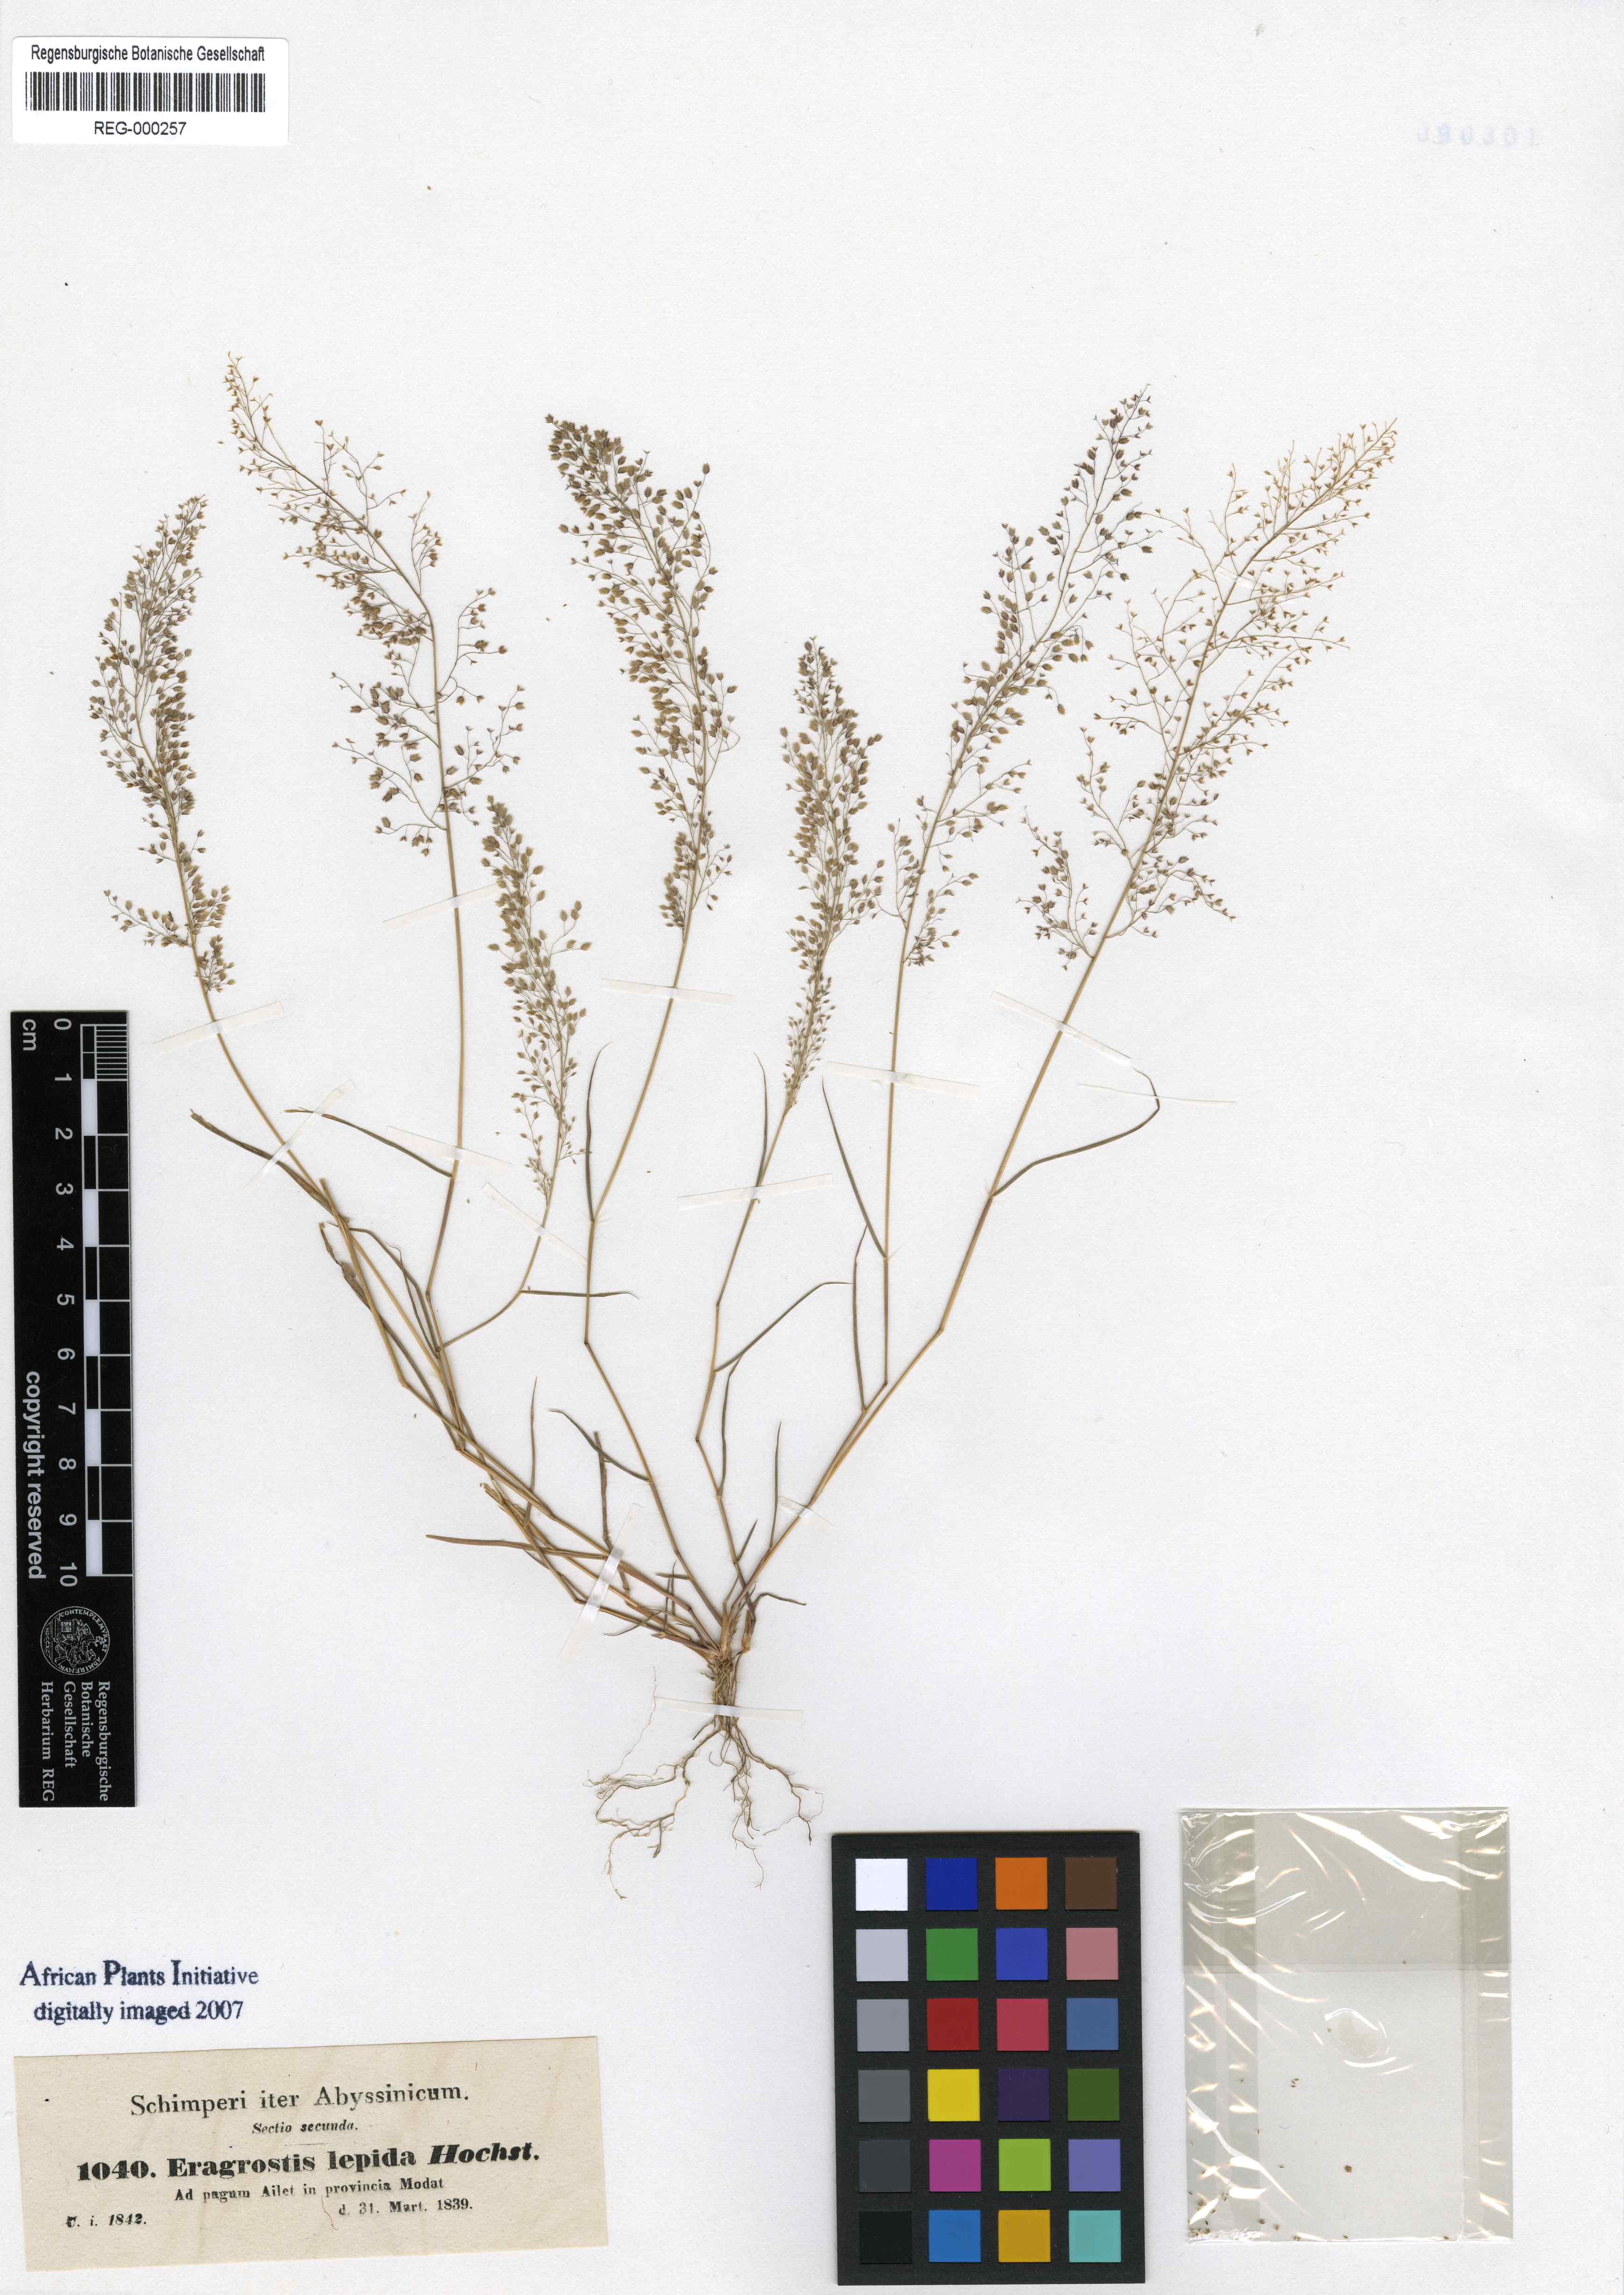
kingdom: Plantae
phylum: Tracheophyta
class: Liliopsida
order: Poales
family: Poaceae
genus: Eragrostis
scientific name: Eragrostis lepida
